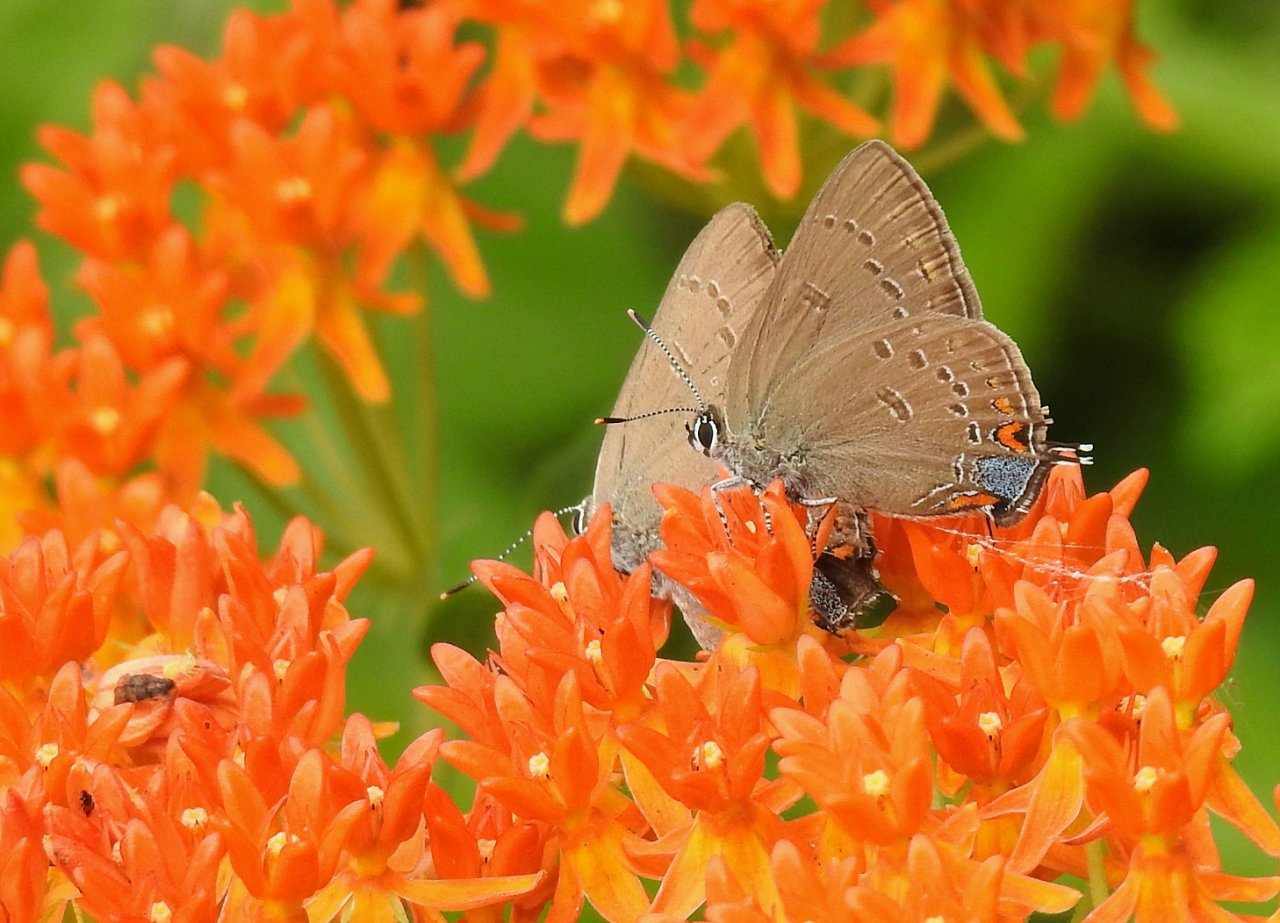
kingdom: Animalia
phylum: Arthropoda
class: Insecta
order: Lepidoptera
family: Lycaenidae
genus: Satyrium
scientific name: Satyrium edwardsii
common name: Edwards' Hairstreak
